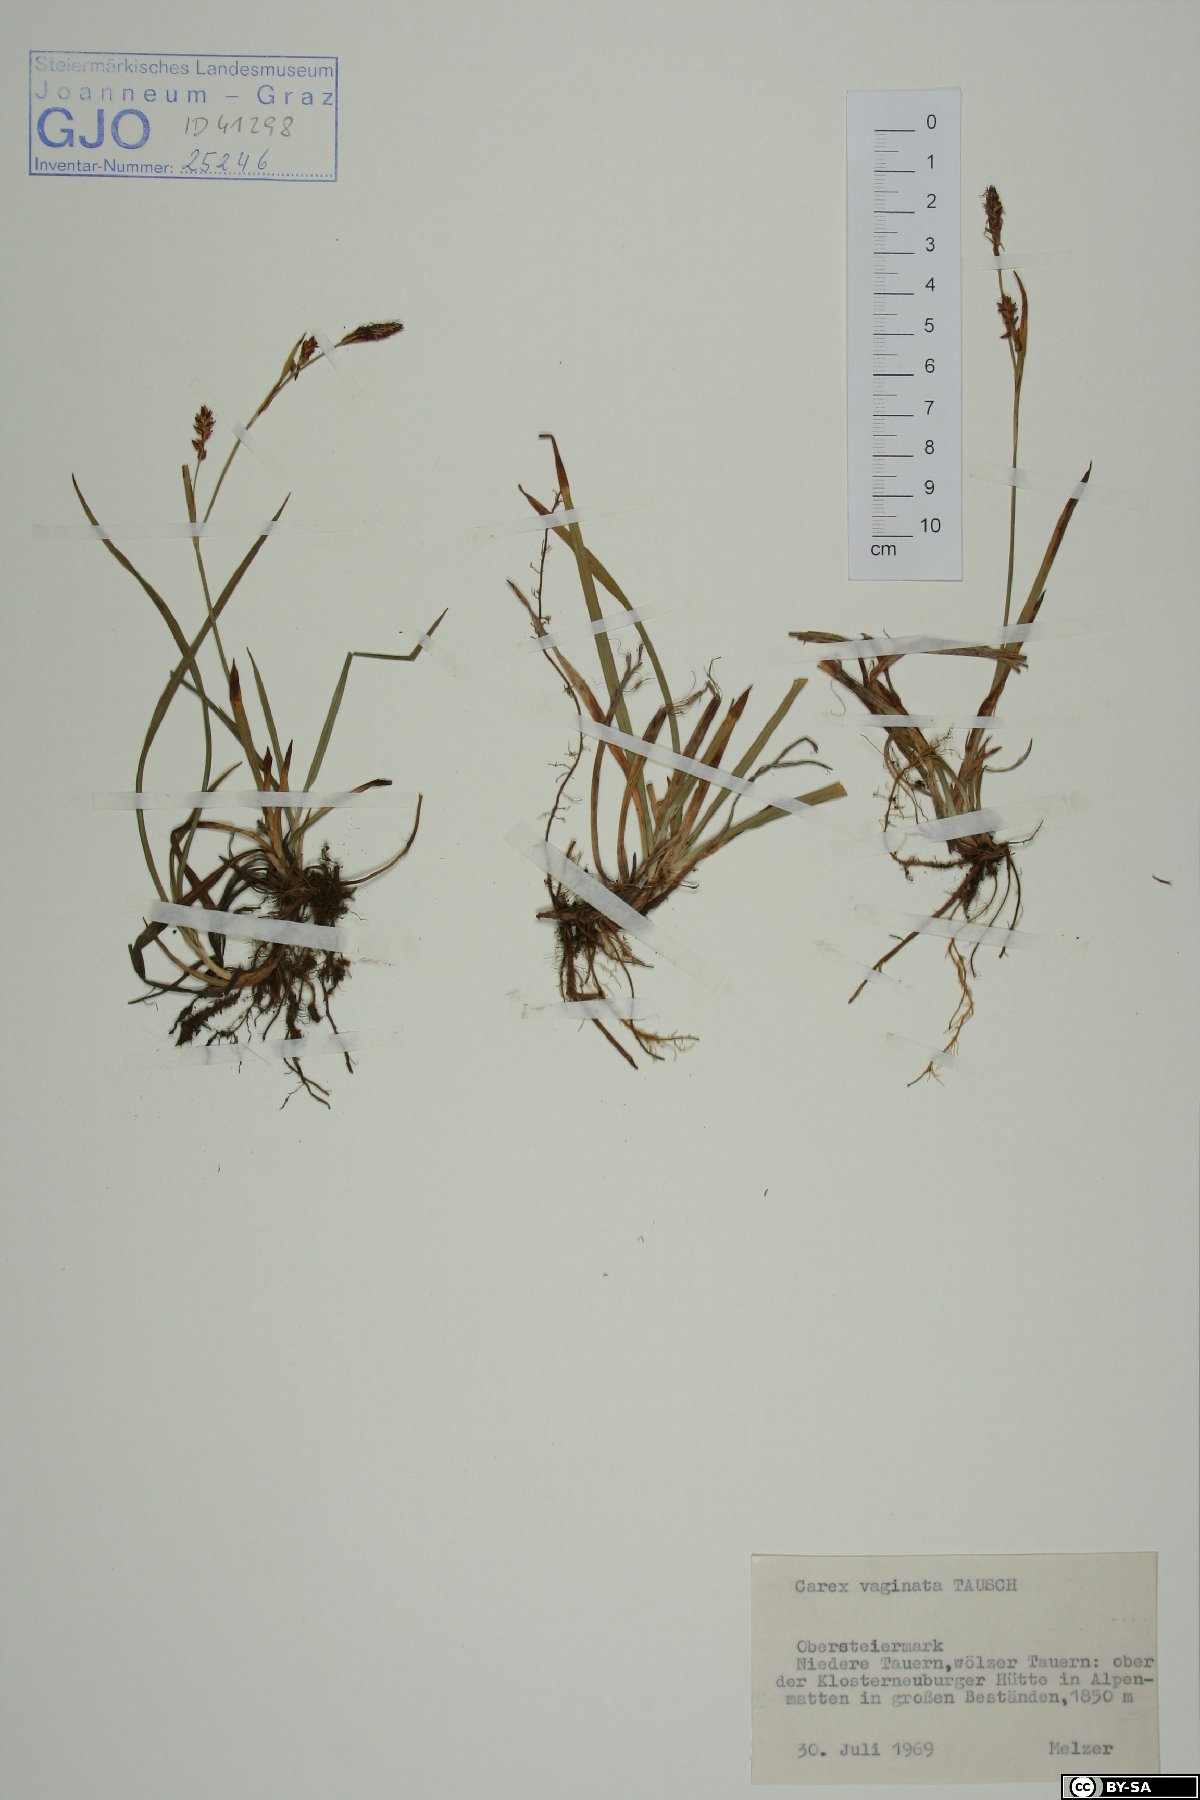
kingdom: Plantae
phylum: Tracheophyta
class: Liliopsida
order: Poales
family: Cyperaceae
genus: Carex
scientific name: Carex vaginata
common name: Sheathed sedge
